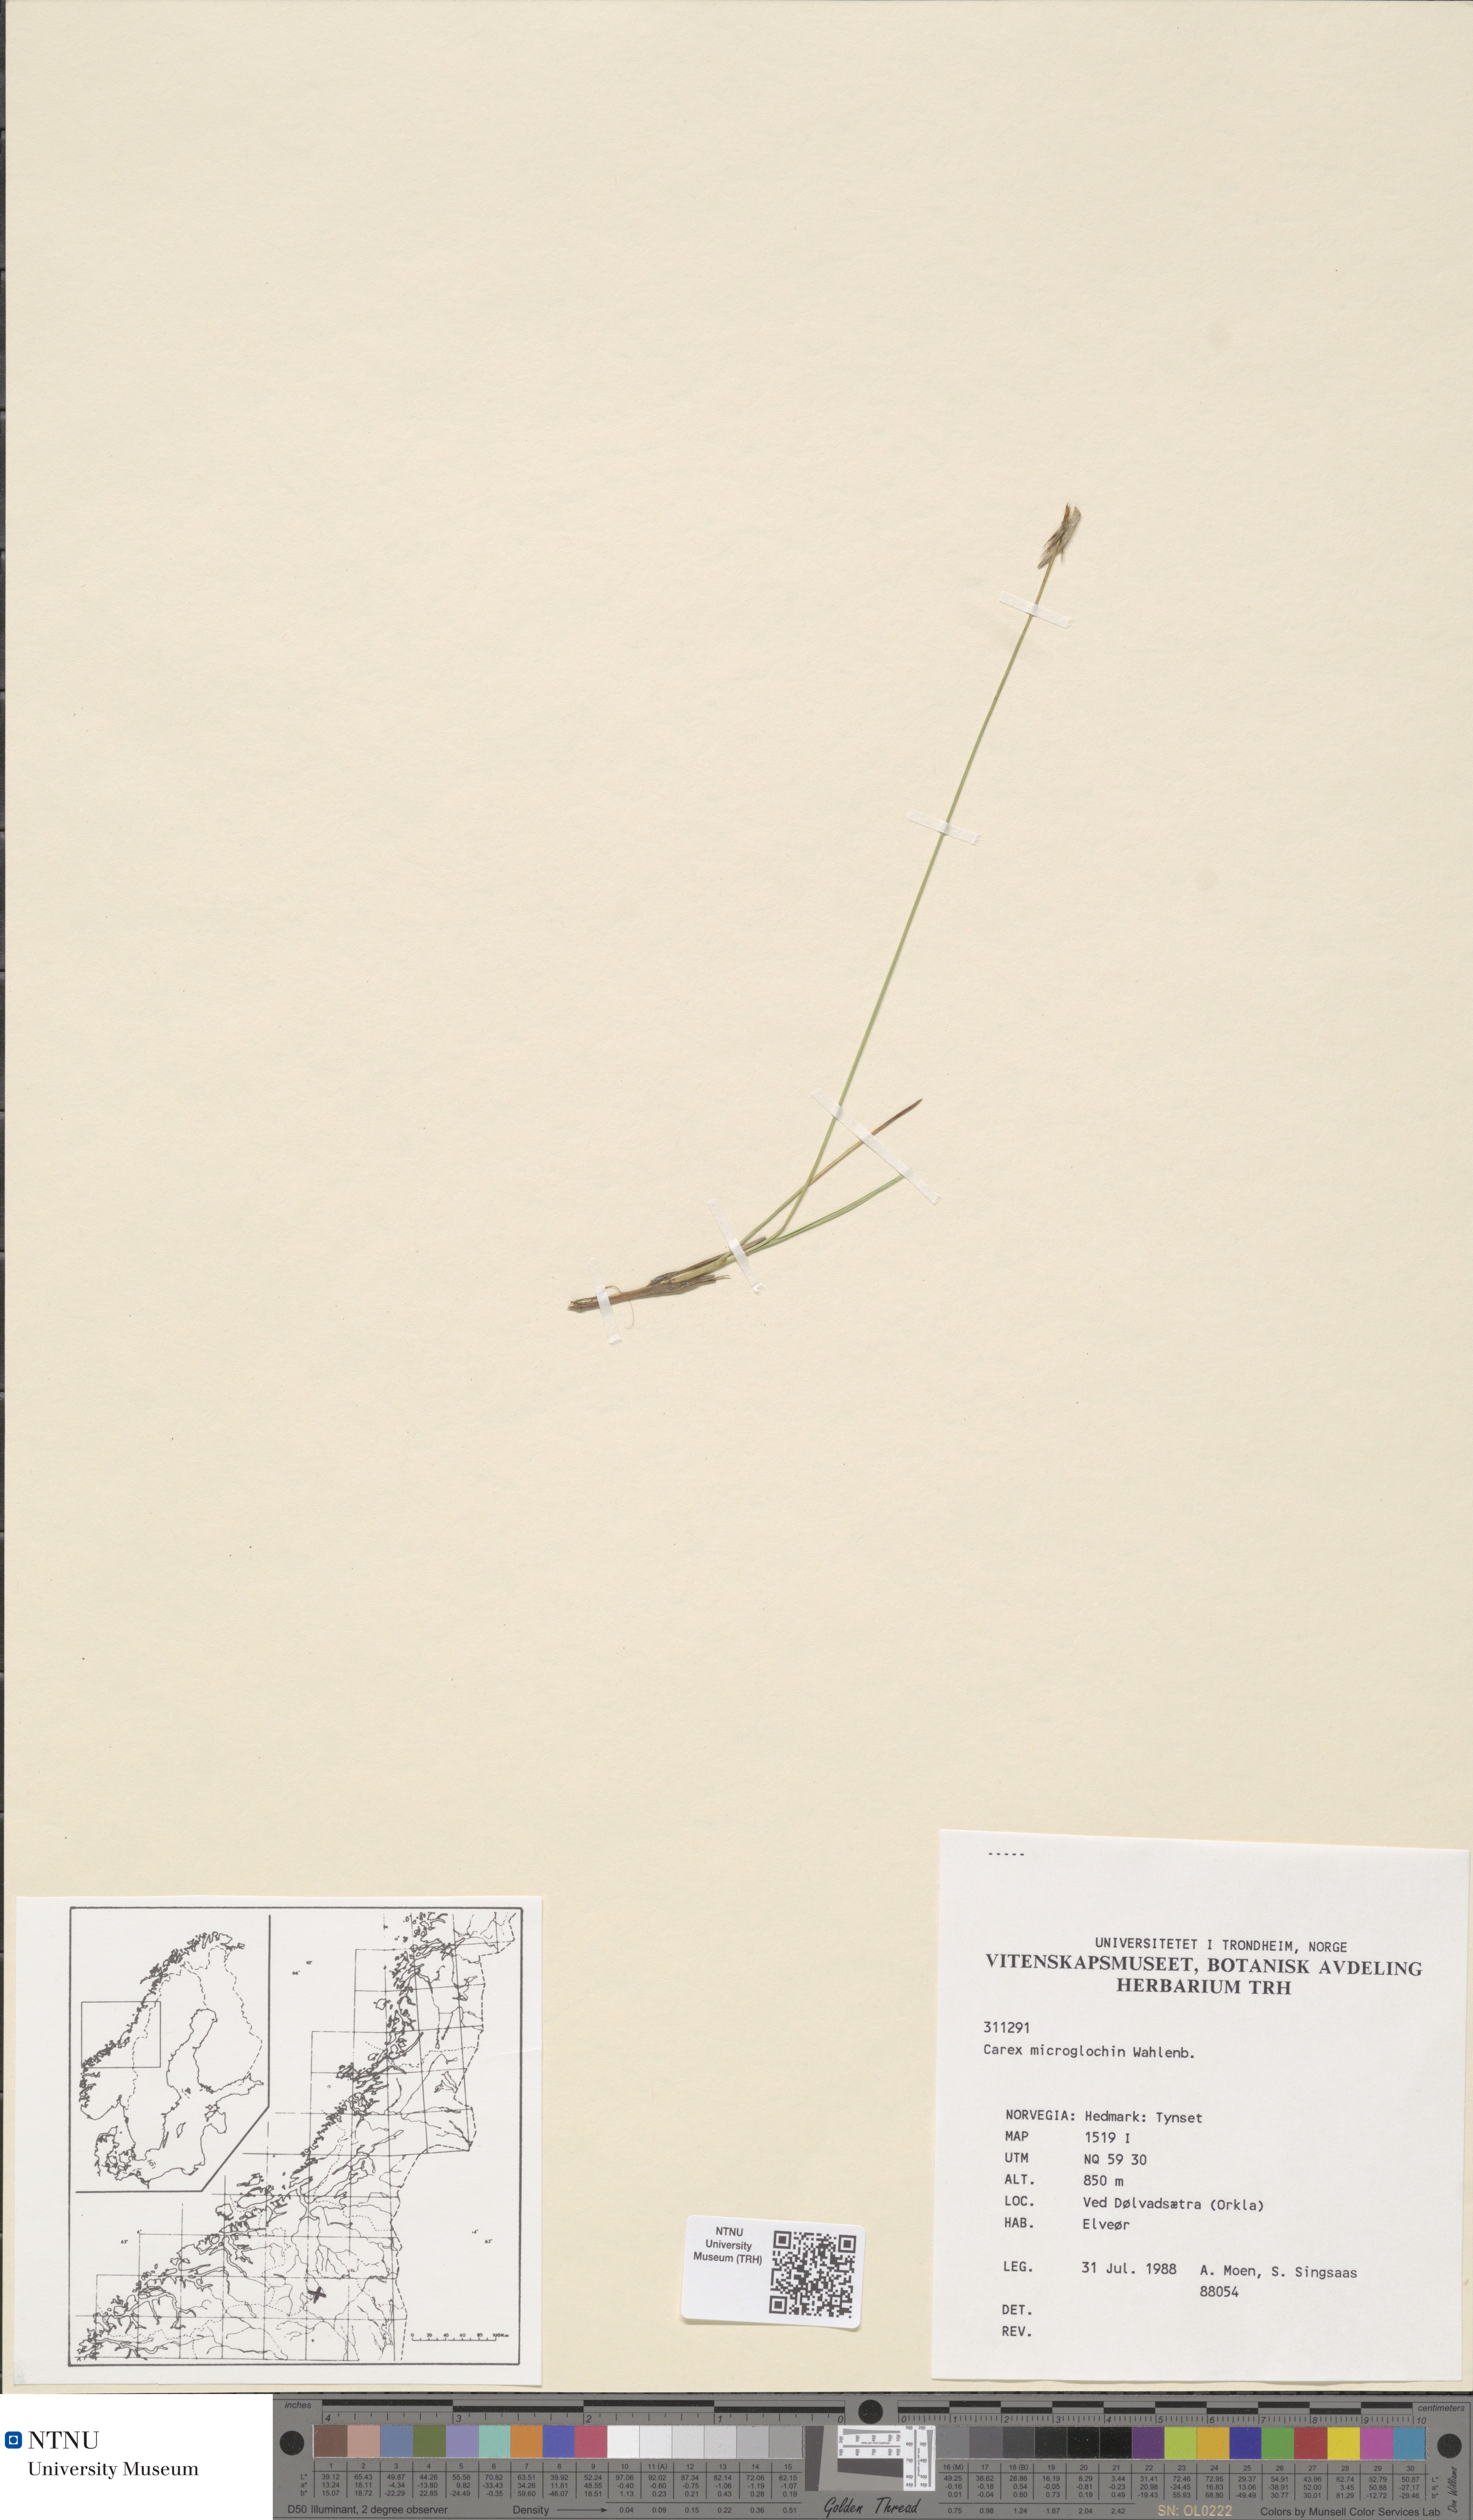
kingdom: Plantae
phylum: Tracheophyta
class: Liliopsida
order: Poales
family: Cyperaceae
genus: Carex
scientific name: Carex microglochin
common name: Bristle sedge
